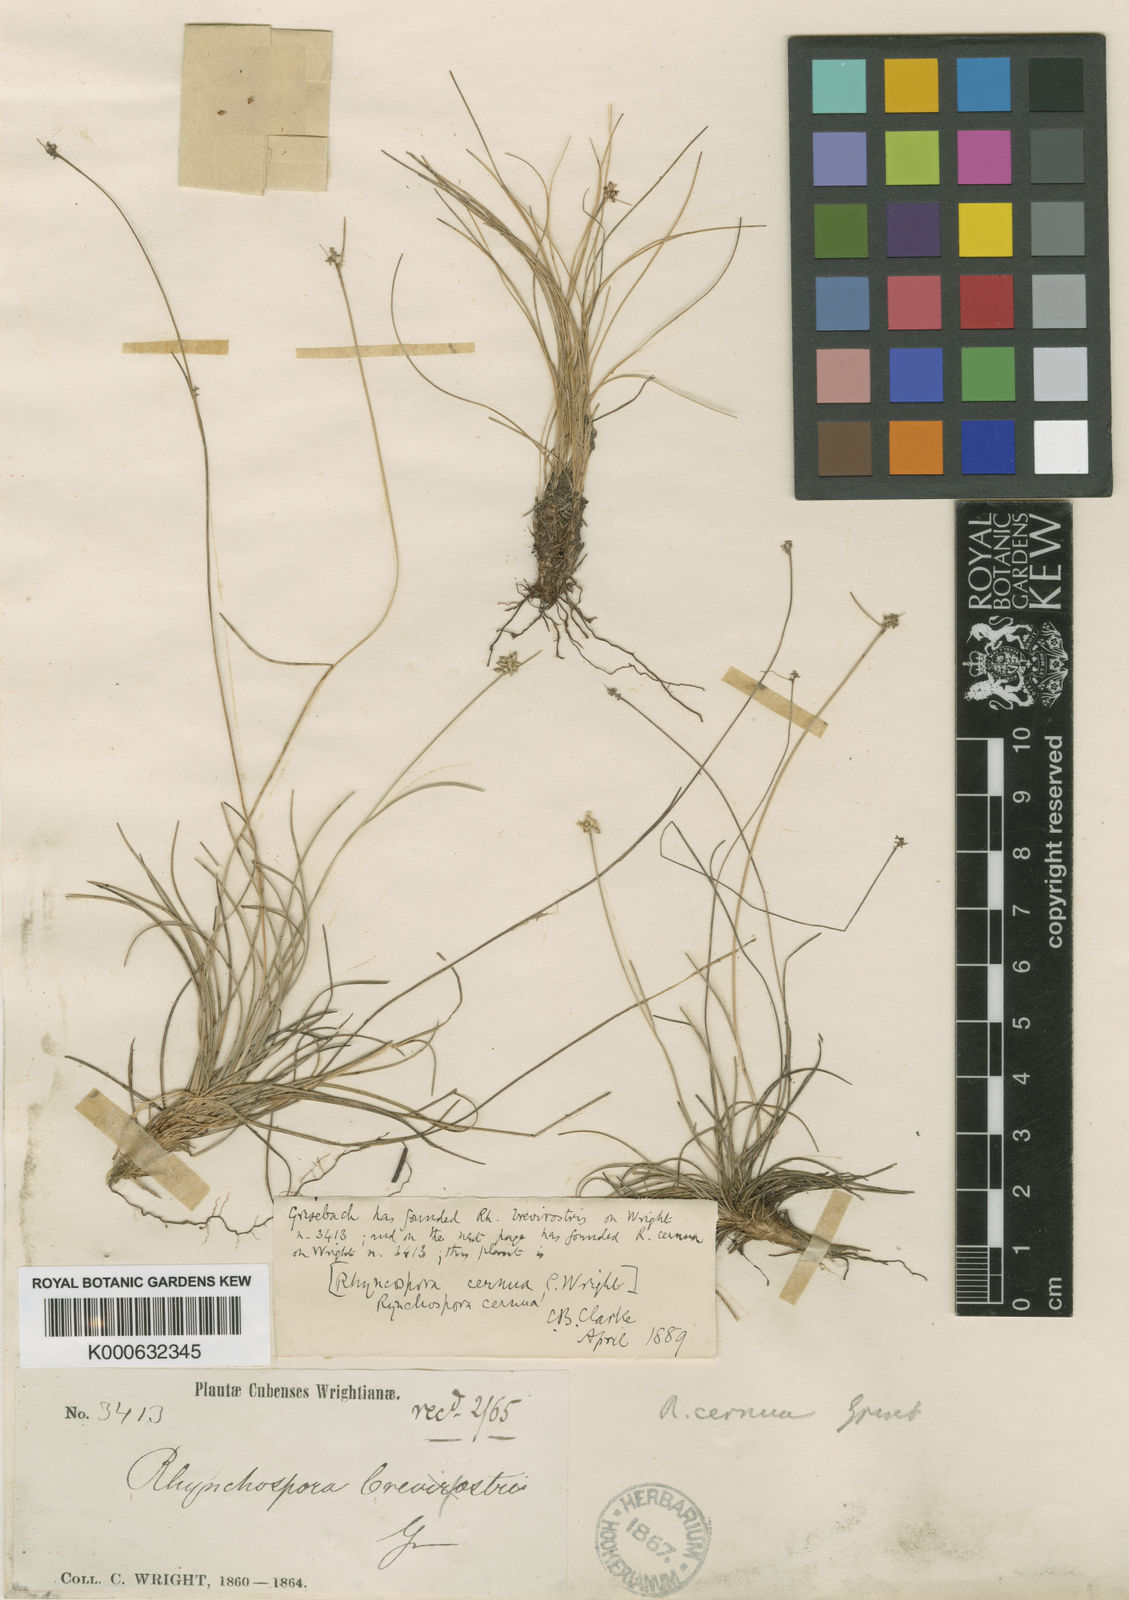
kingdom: Plantae
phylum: Tracheophyta
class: Liliopsida
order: Poales
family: Cyperaceae
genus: Rhynchospora
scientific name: Rhynchospora cernua
